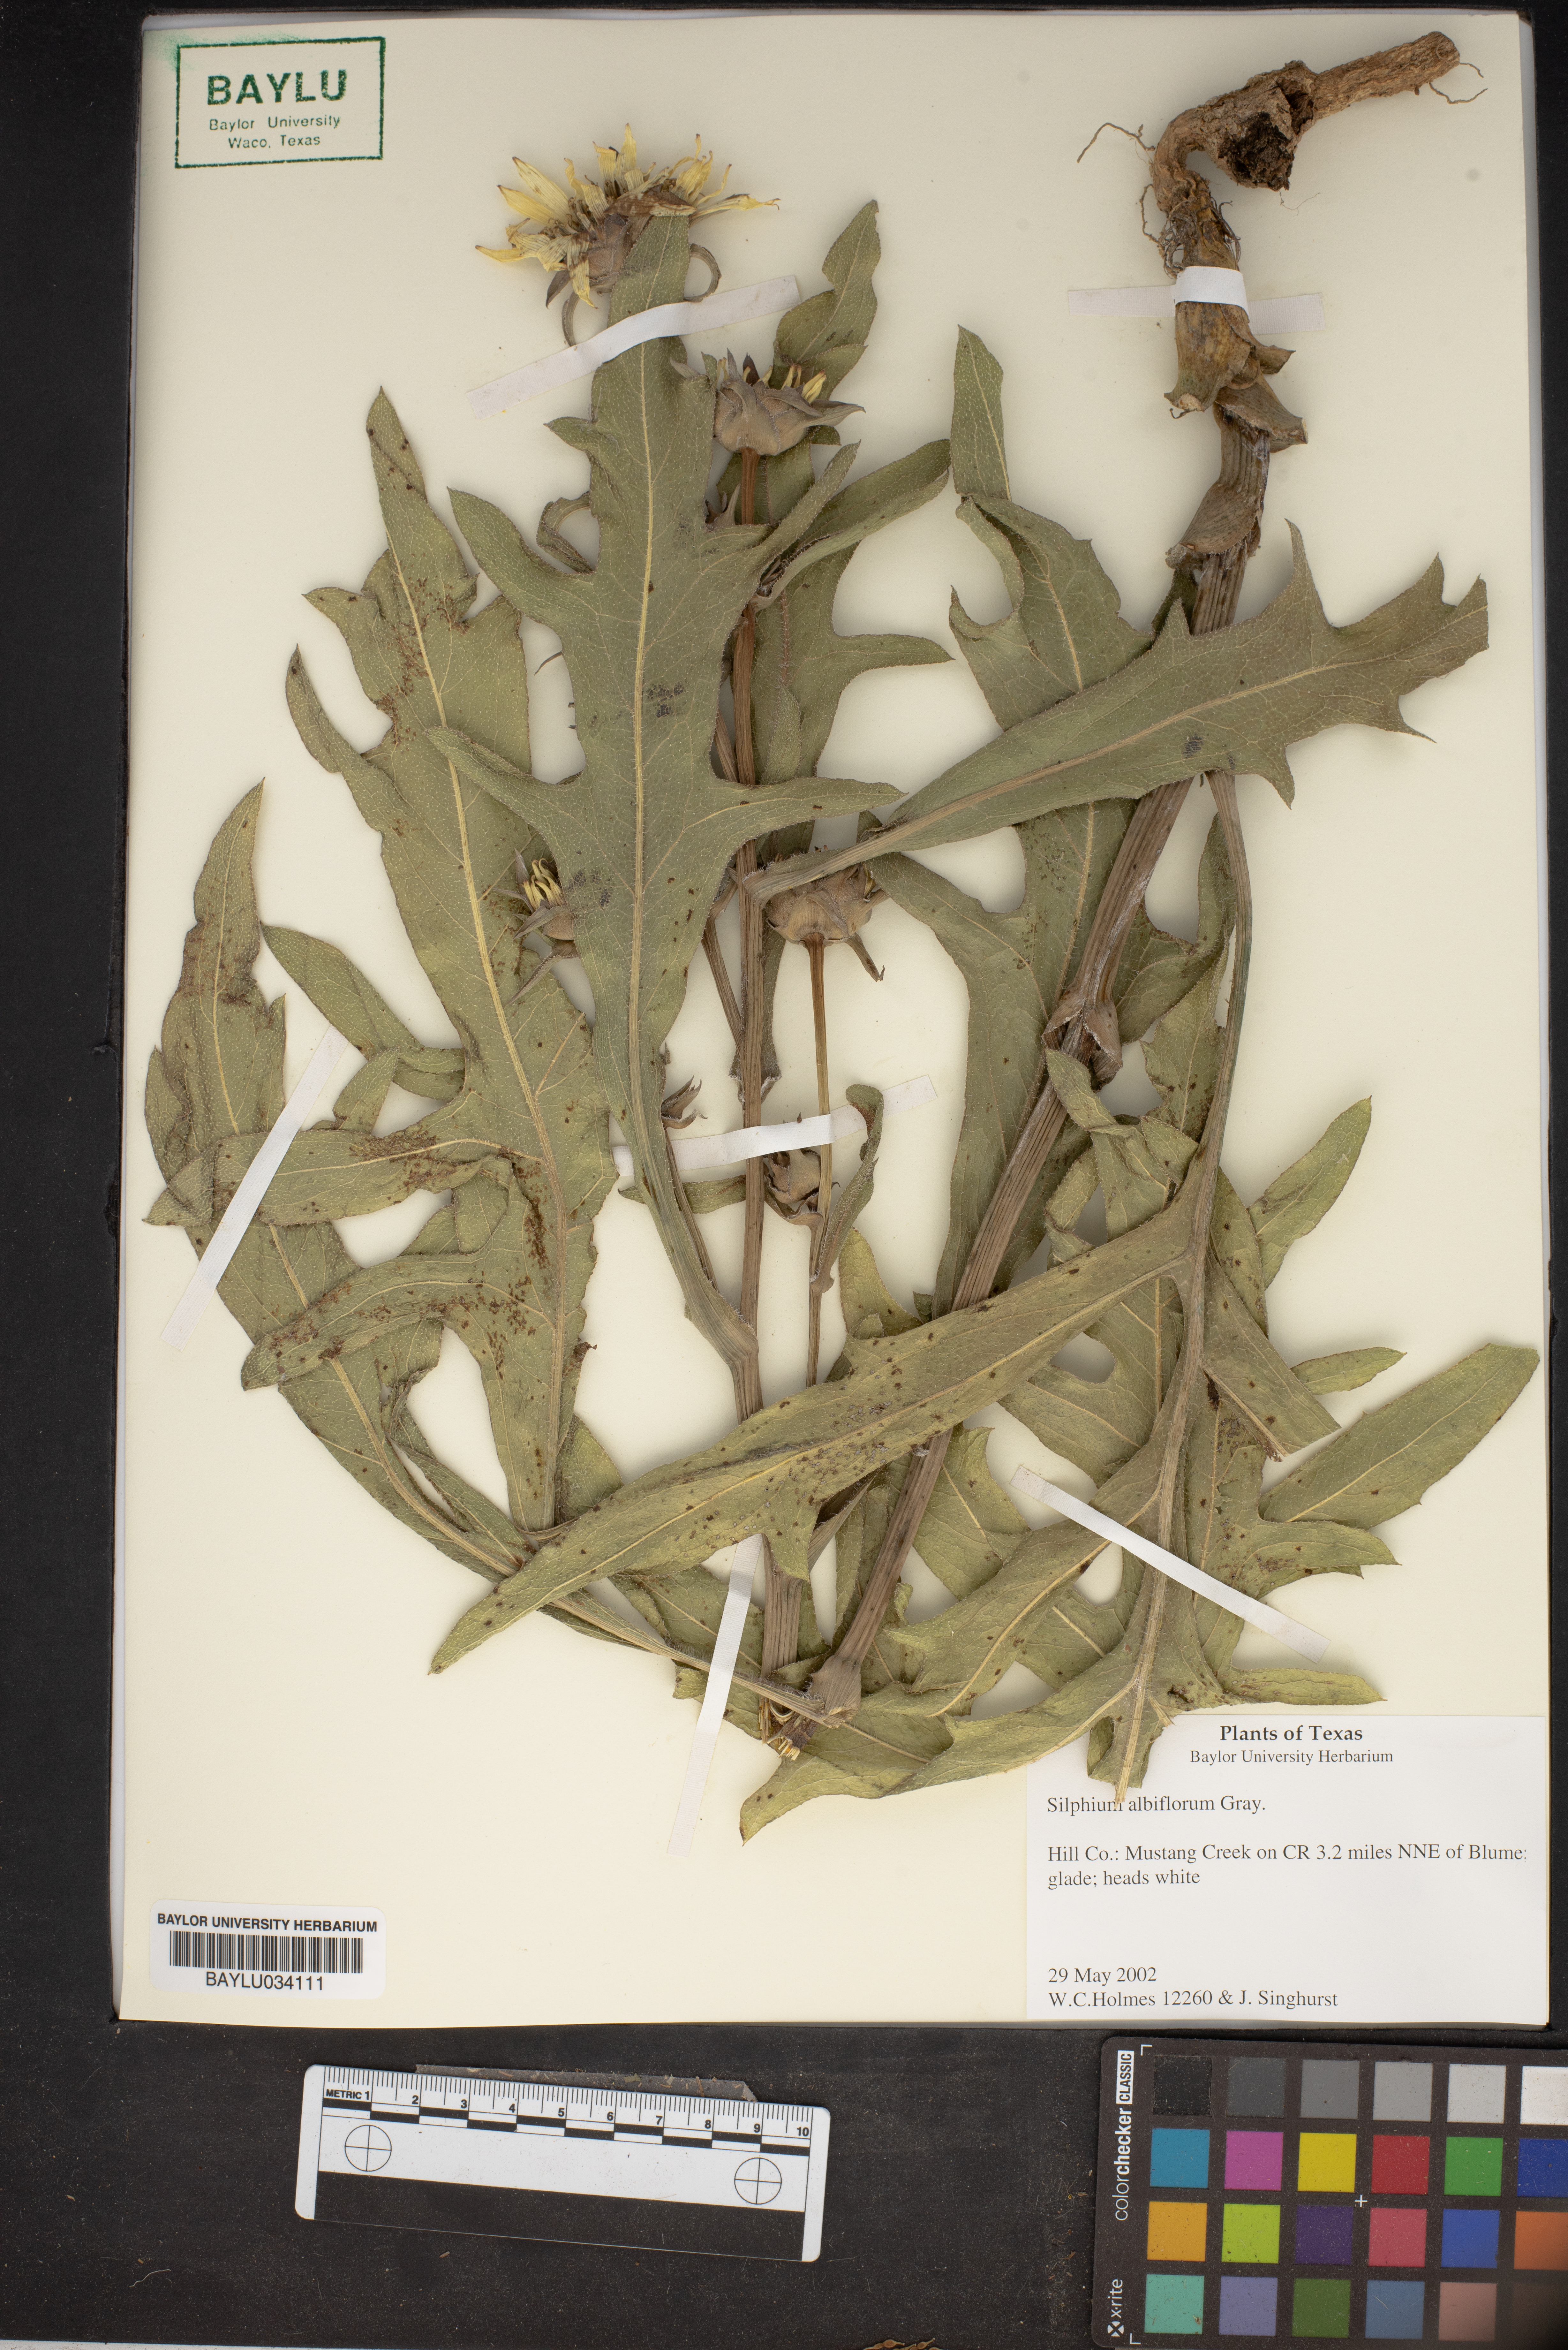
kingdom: Plantae
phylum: Tracheophyta
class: Magnoliopsida
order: Asterales
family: Asteraceae
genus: Silphium
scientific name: Silphium albiflorum
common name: White rosinweed
